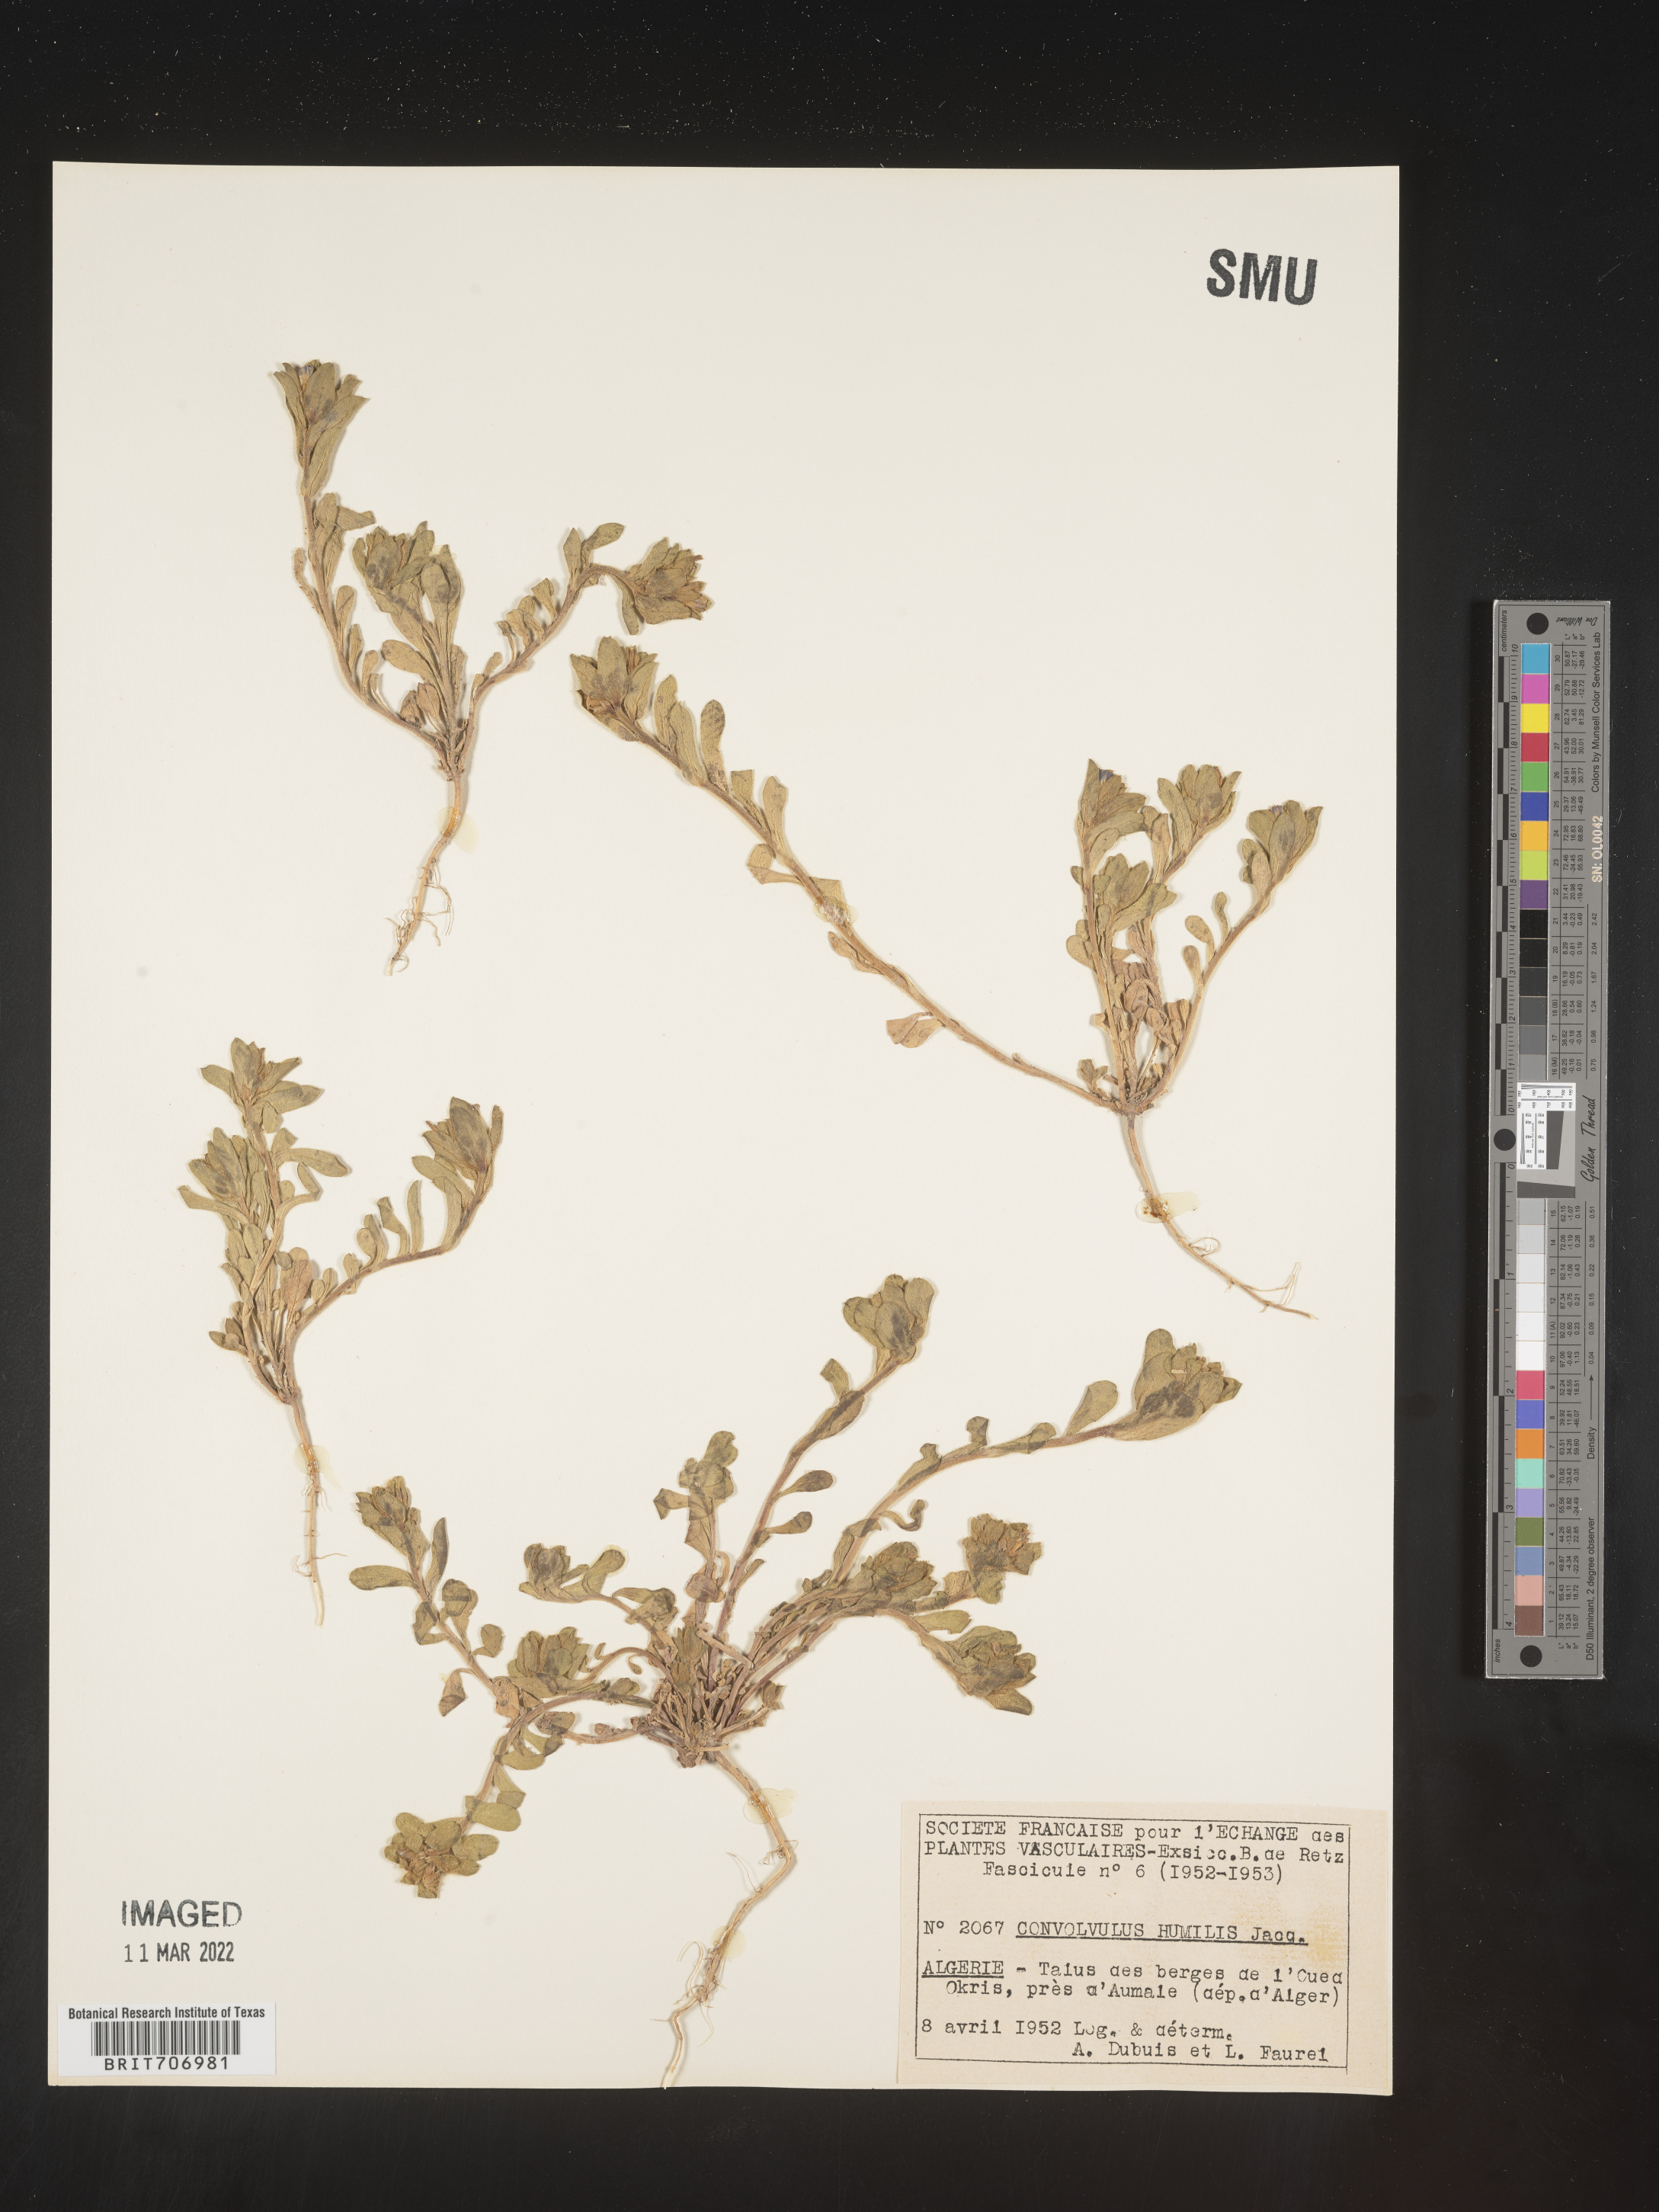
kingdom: Plantae
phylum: Tracheophyta
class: Magnoliopsida
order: Solanales
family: Convolvulaceae
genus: Convolvulus
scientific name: Convolvulus
